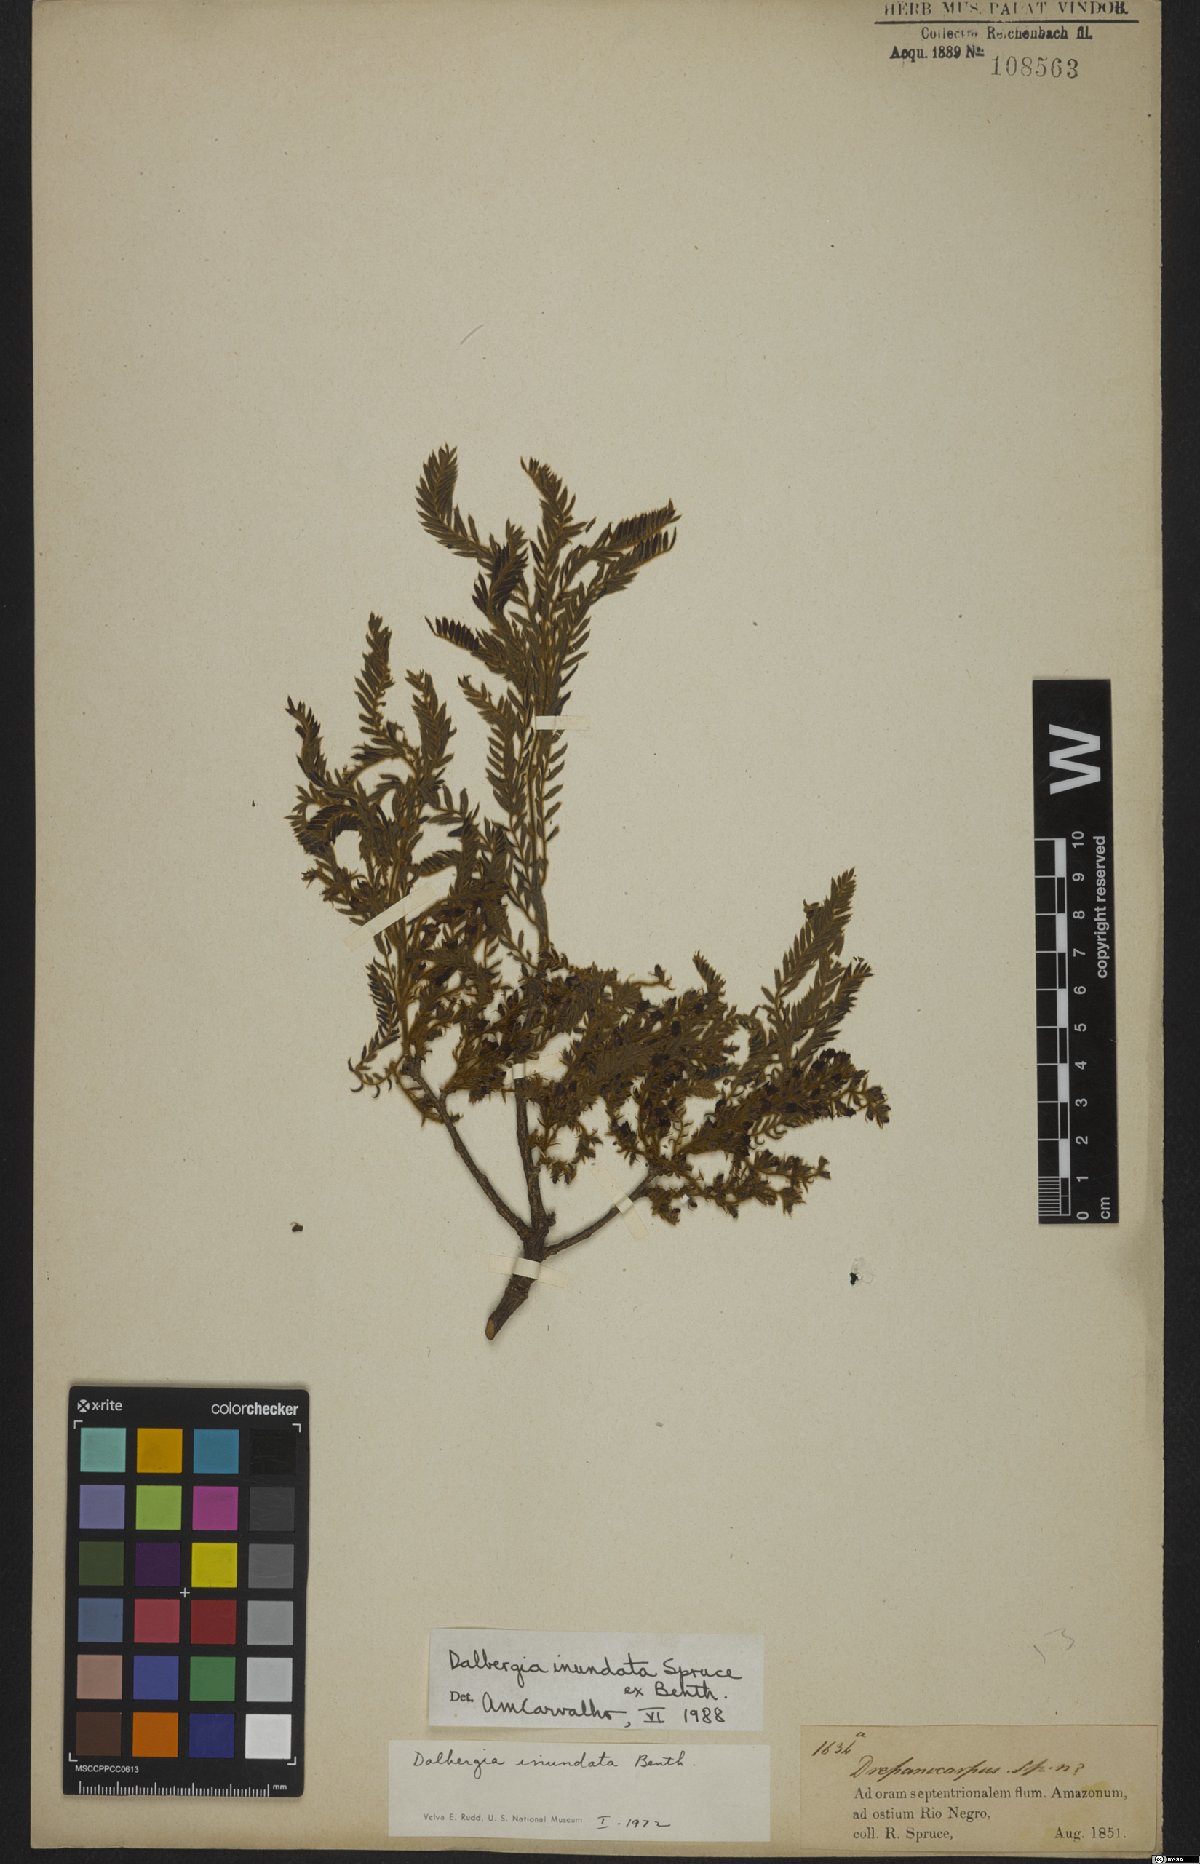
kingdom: Plantae
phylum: Tracheophyta
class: Magnoliopsida
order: Fabales
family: Fabaceae
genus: Dalbergia
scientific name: Dalbergia inundata
